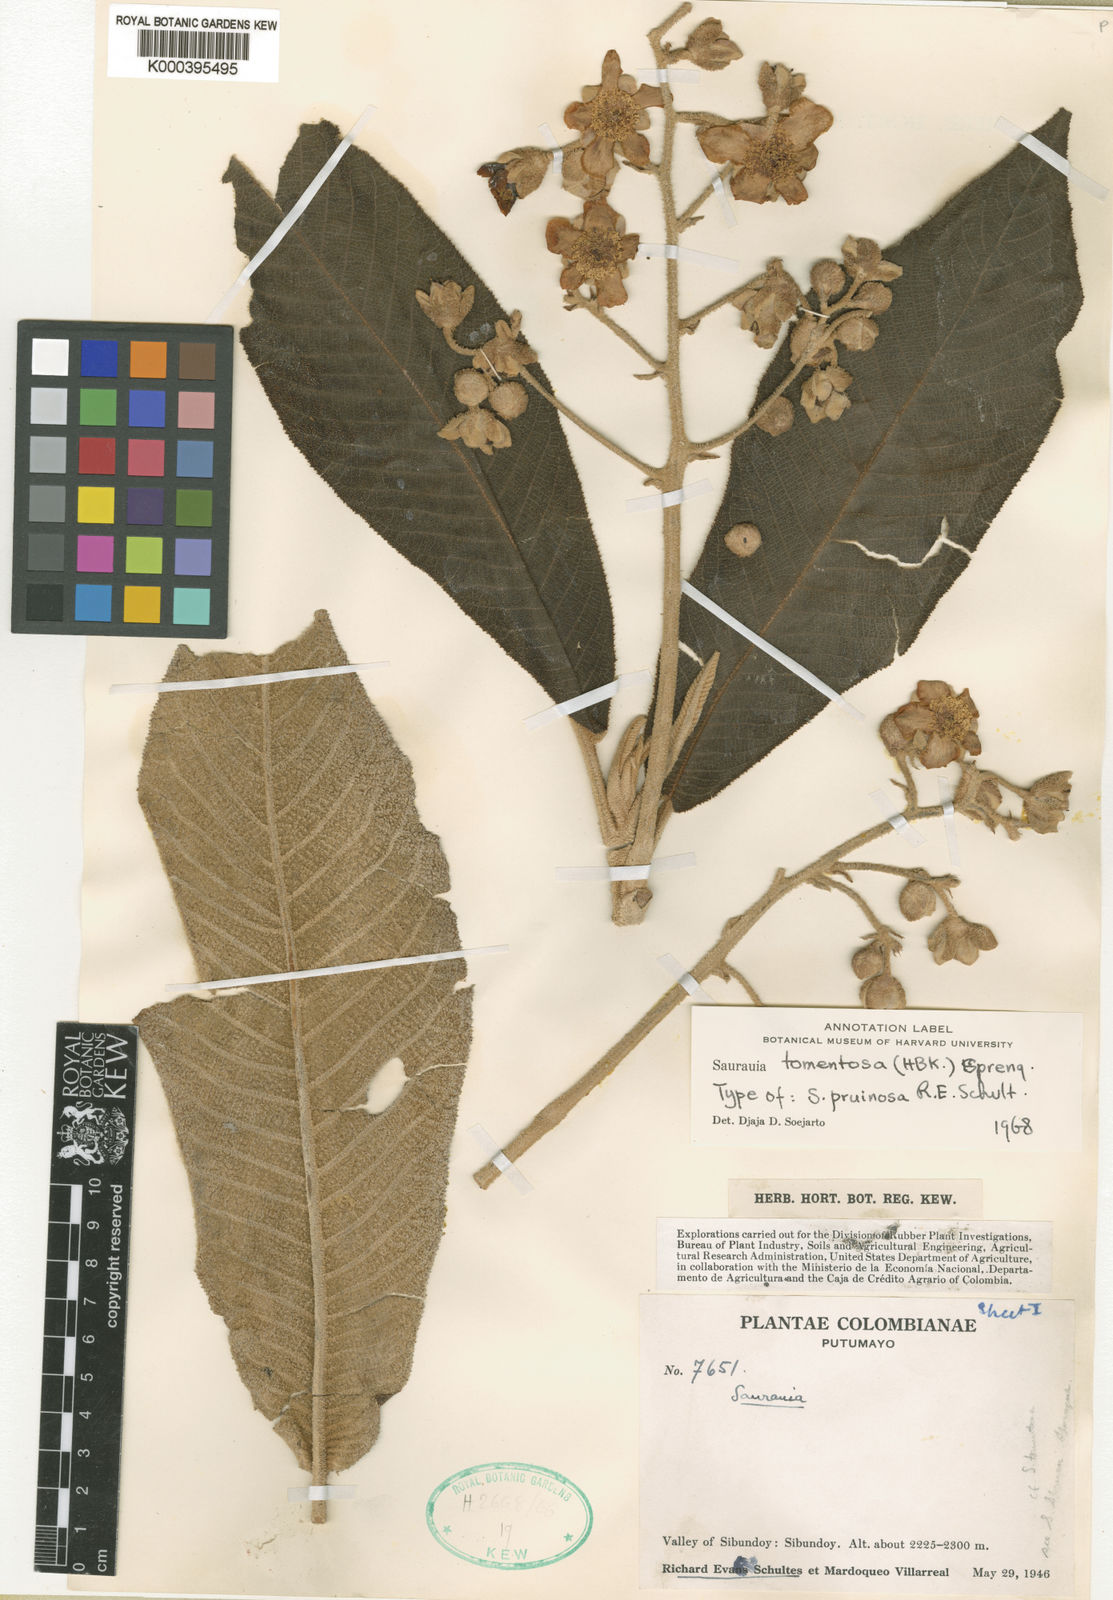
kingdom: Plantae
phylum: Tracheophyta
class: Magnoliopsida
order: Ericales
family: Actinidiaceae
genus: Saurauia
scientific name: Saurauia tomentosa
